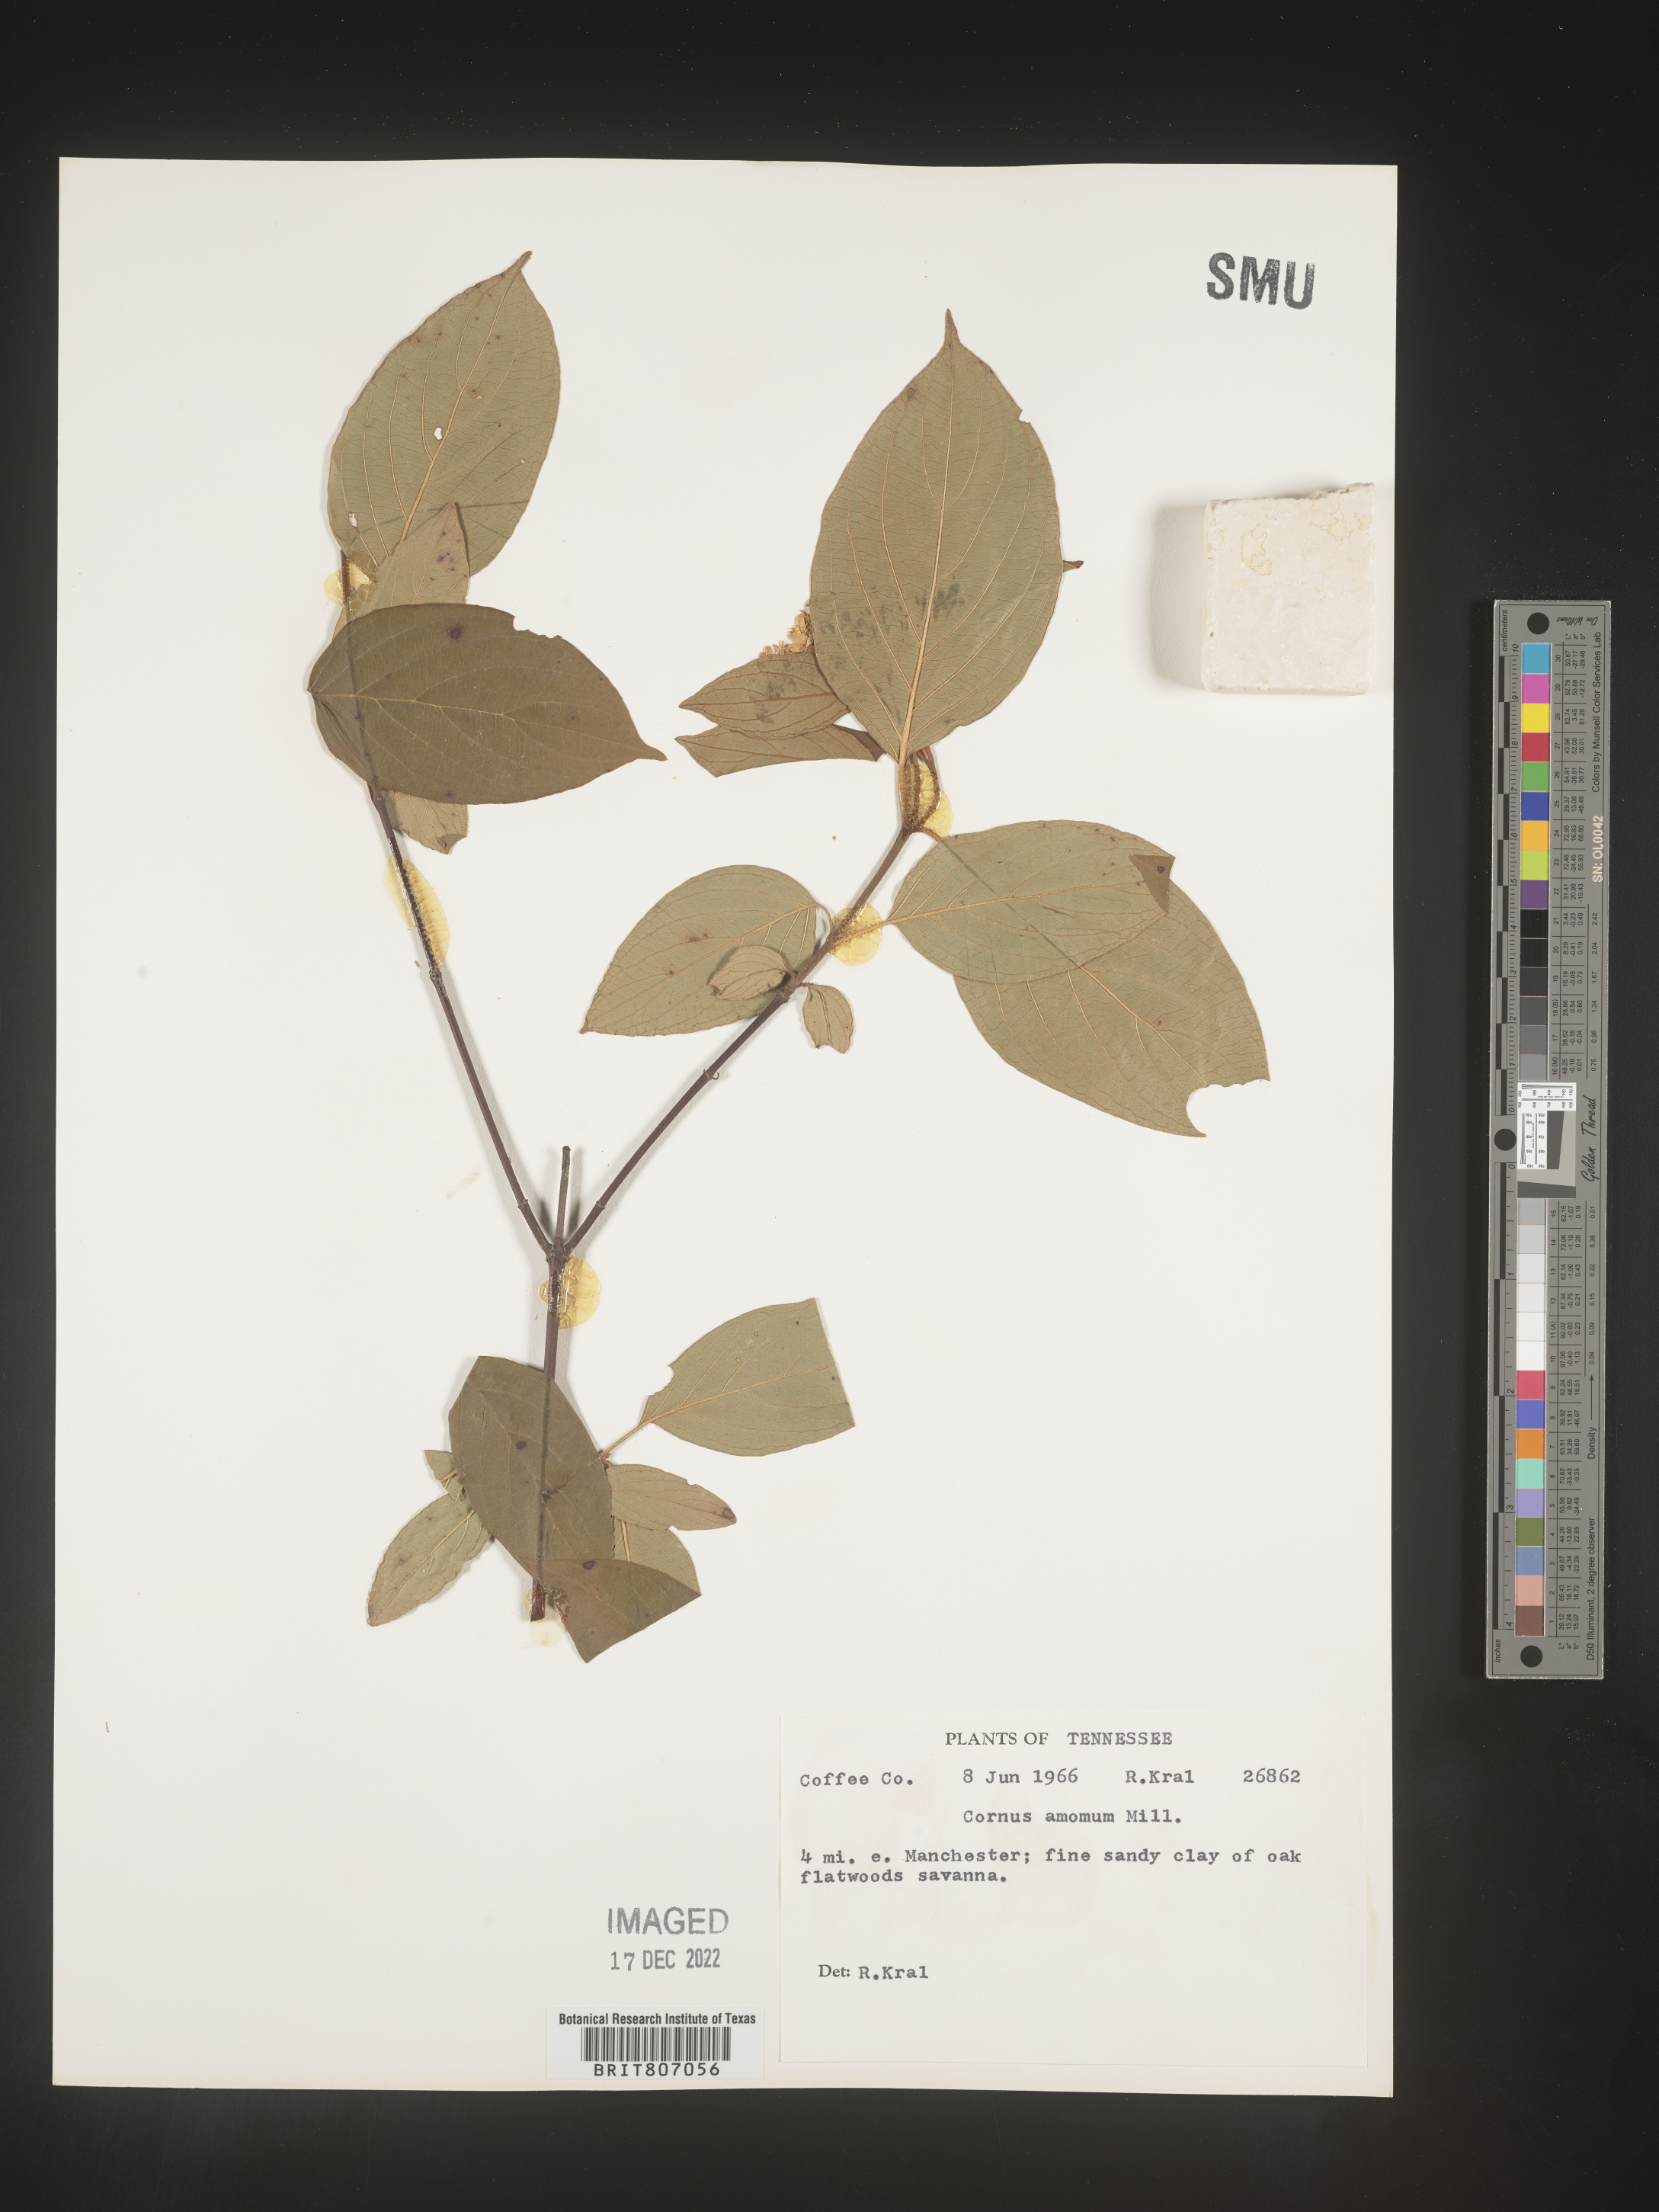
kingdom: Plantae
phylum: Tracheophyta
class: Magnoliopsida
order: Cornales
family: Cornaceae
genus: Cornus
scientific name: Cornus amomum
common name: Silky dogwood
